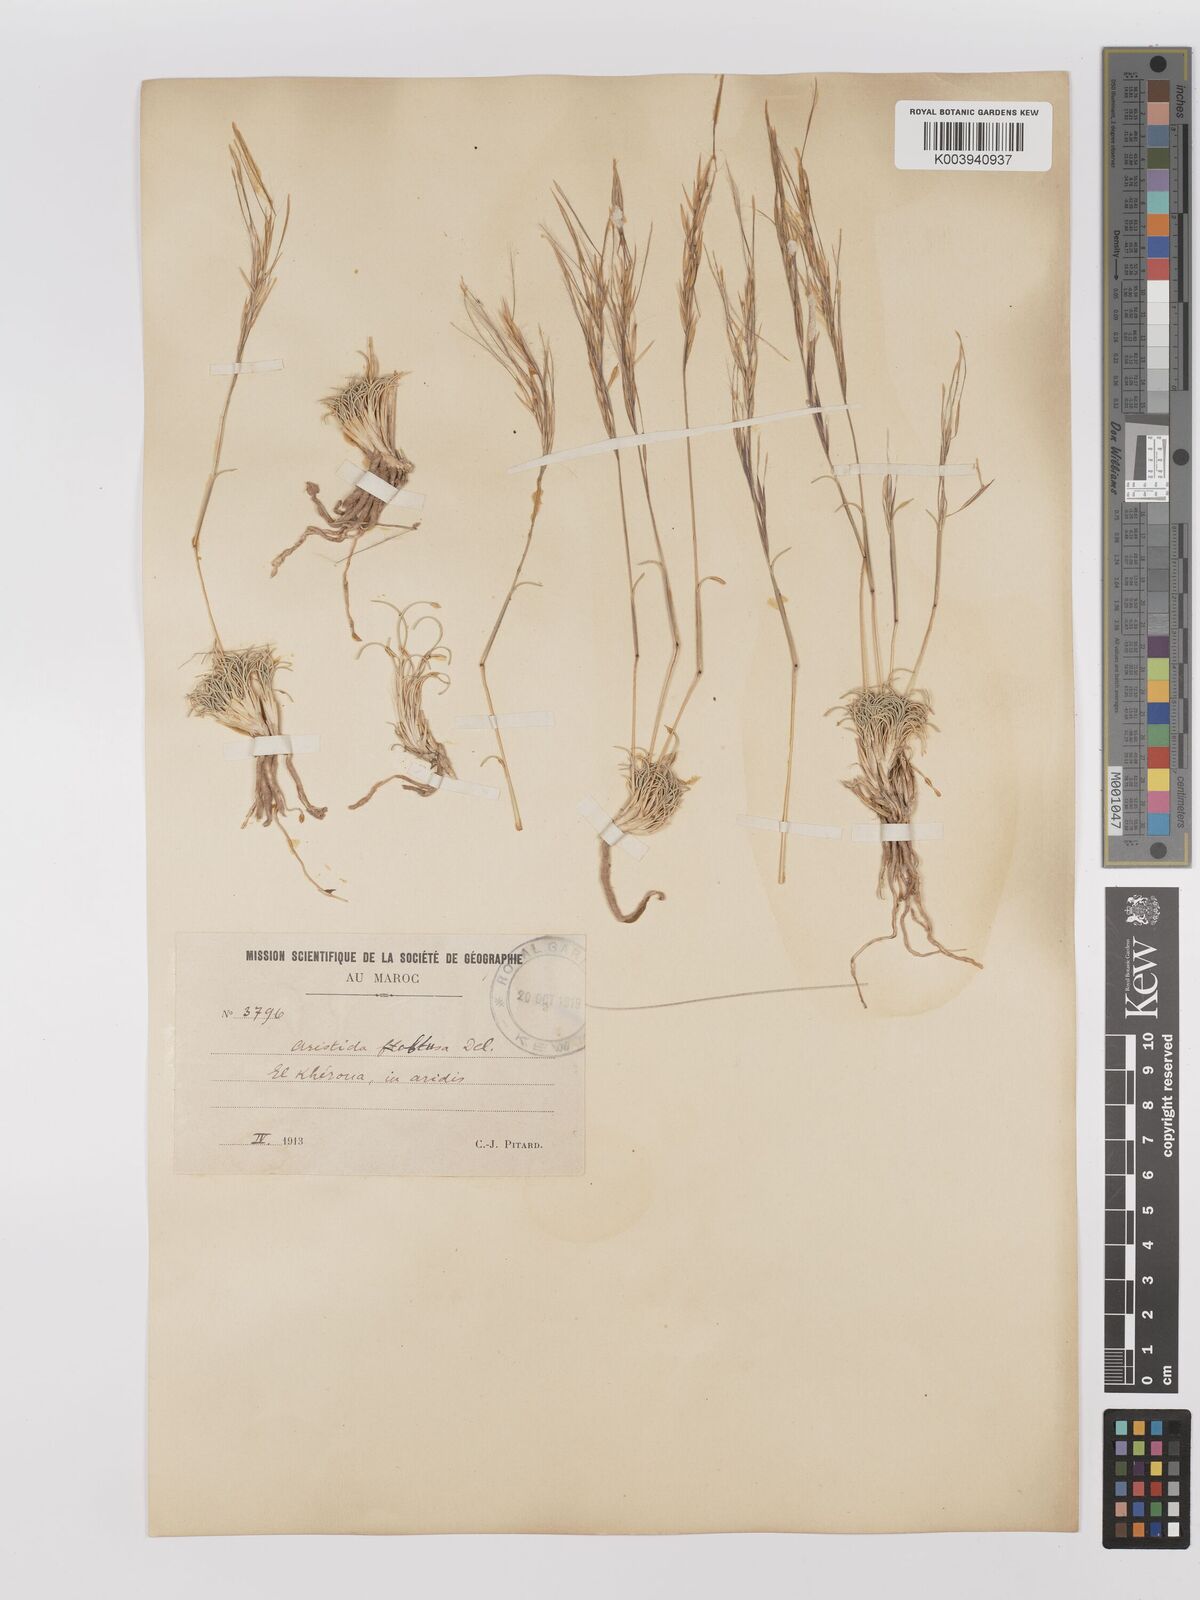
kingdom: Plantae
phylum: Tracheophyta
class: Liliopsida
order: Poales
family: Poaceae
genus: Stipagrostis
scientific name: Stipagrostis obtusa
